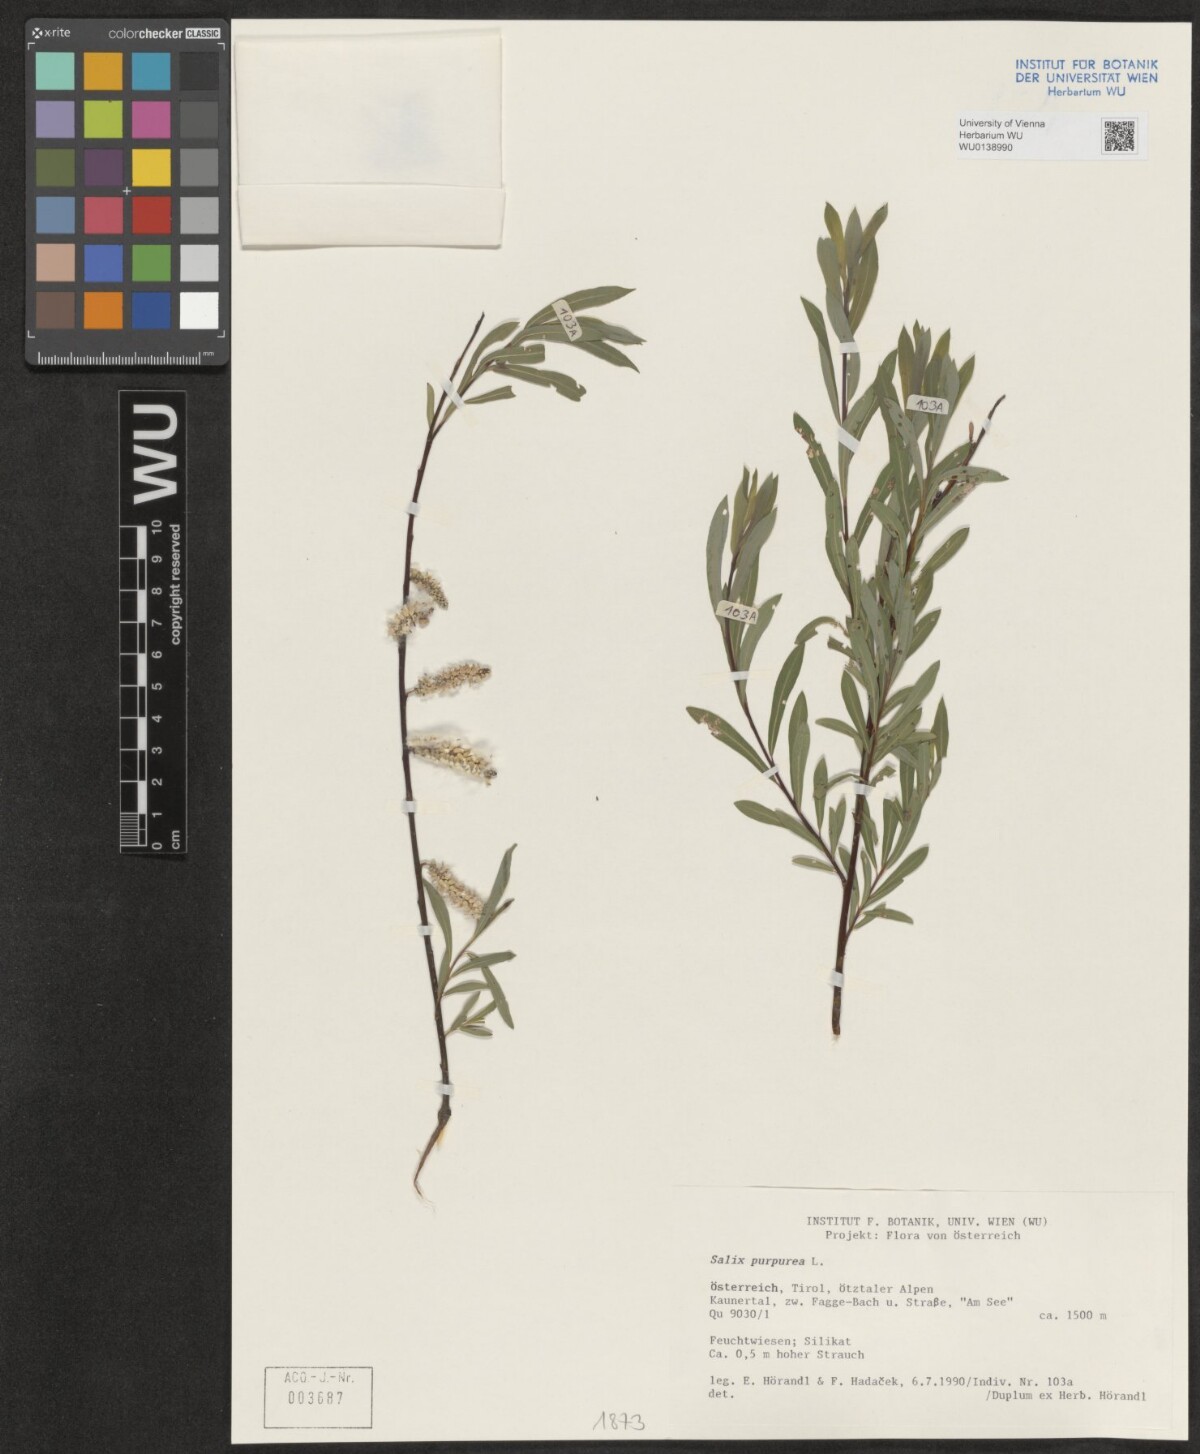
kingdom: Plantae
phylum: Tracheophyta
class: Magnoliopsida
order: Malpighiales
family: Salicaceae
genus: Salix
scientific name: Salix purpurea
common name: Purple willow
